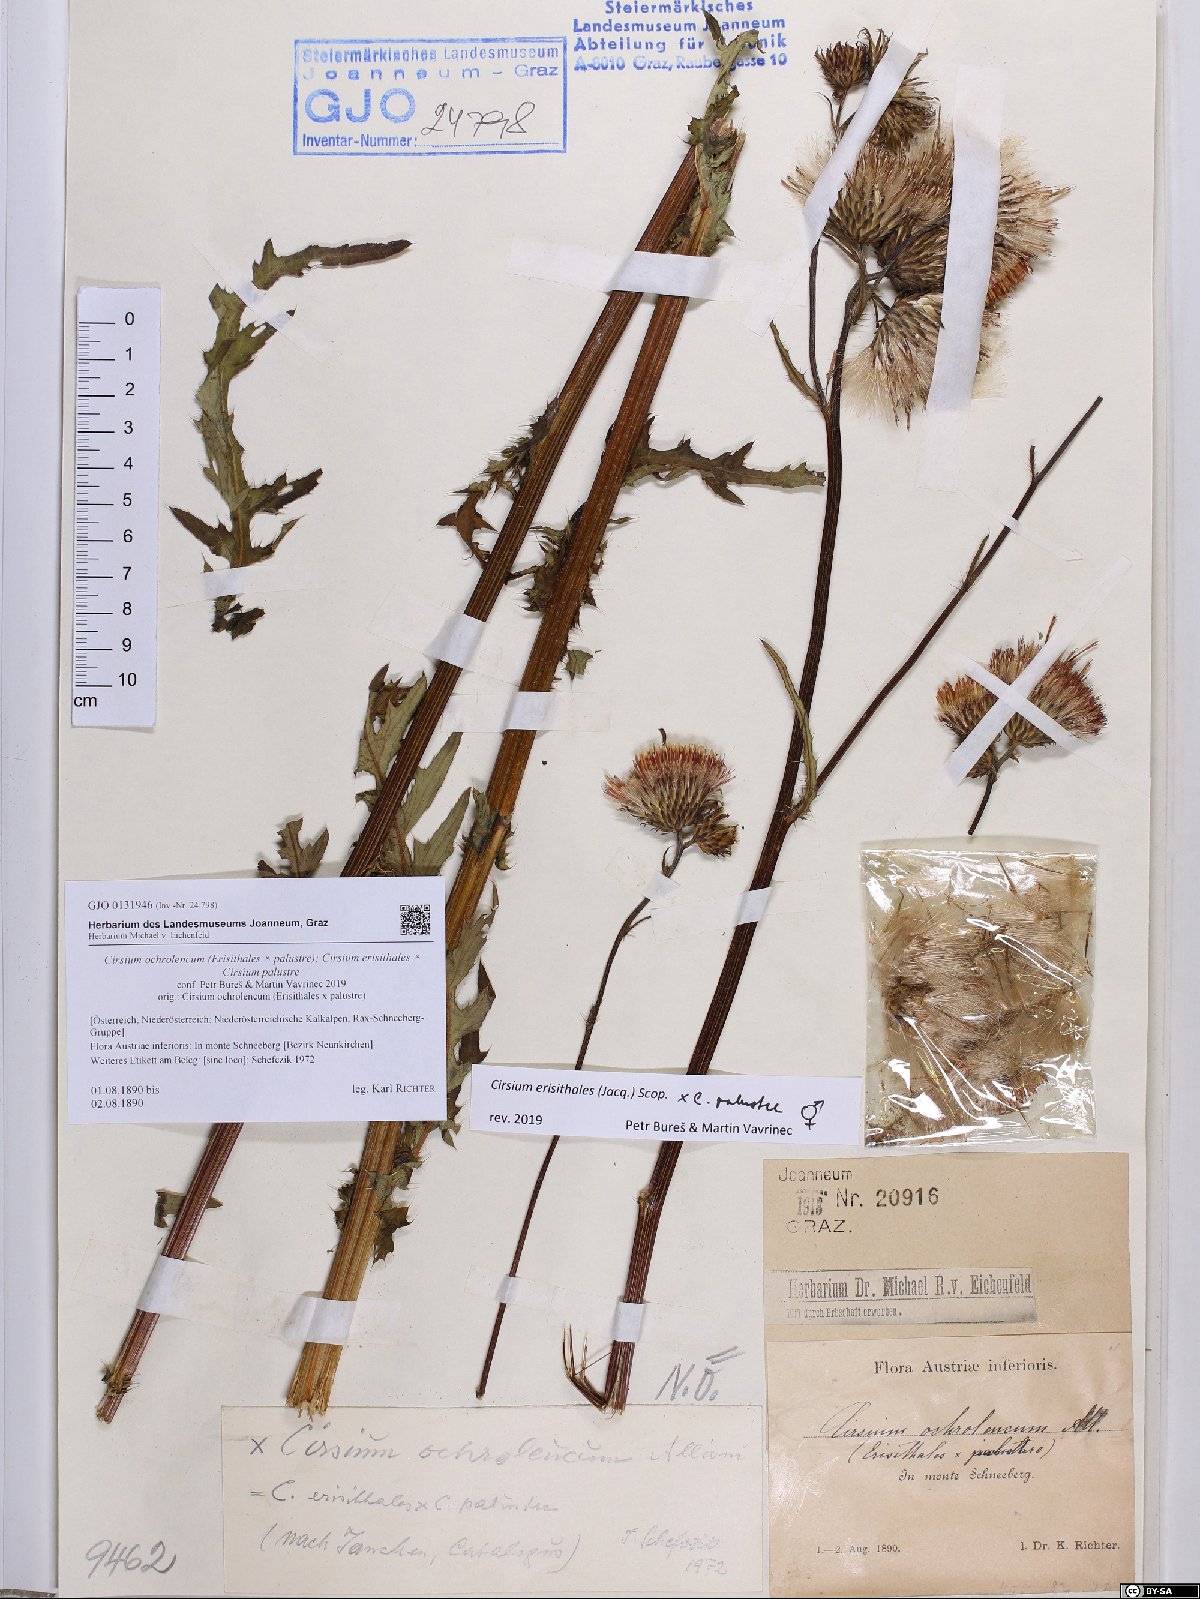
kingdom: Plantae
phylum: Tracheophyta
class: Magnoliopsida
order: Asterales
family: Asteraceae
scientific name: Asteraceae
